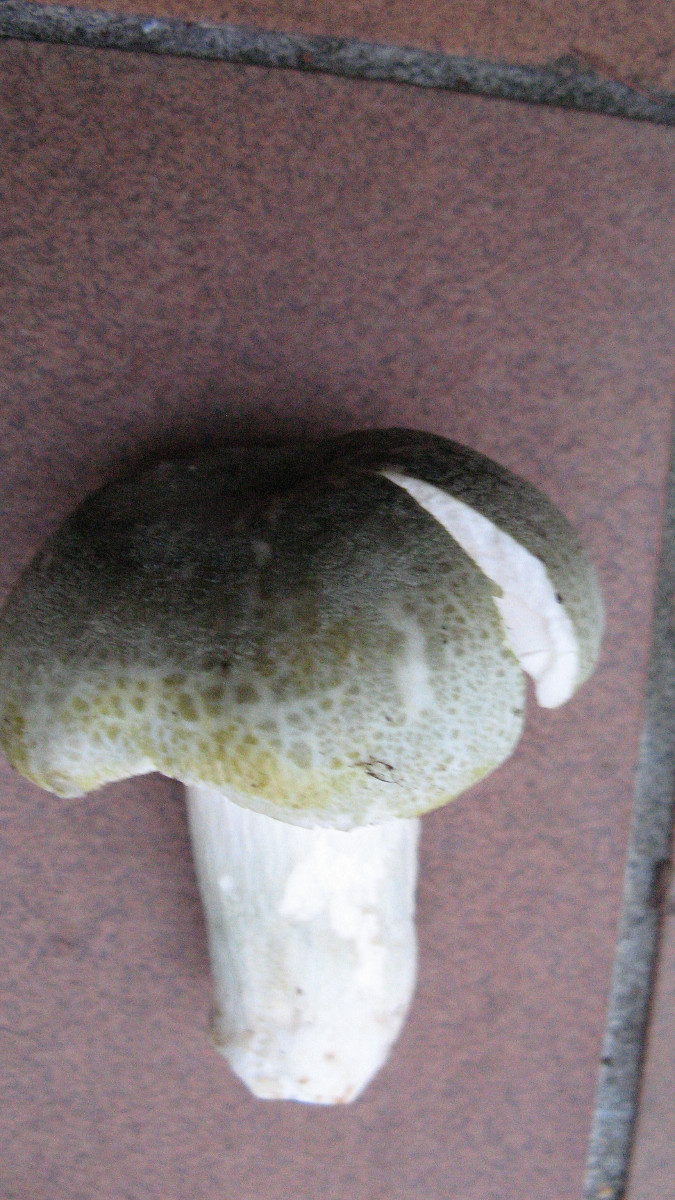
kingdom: Fungi
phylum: Basidiomycota
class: Agaricomycetes
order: Russulales
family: Russulaceae
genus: Russula
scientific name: Russula aeruginea
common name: græsgrøn skørhat
